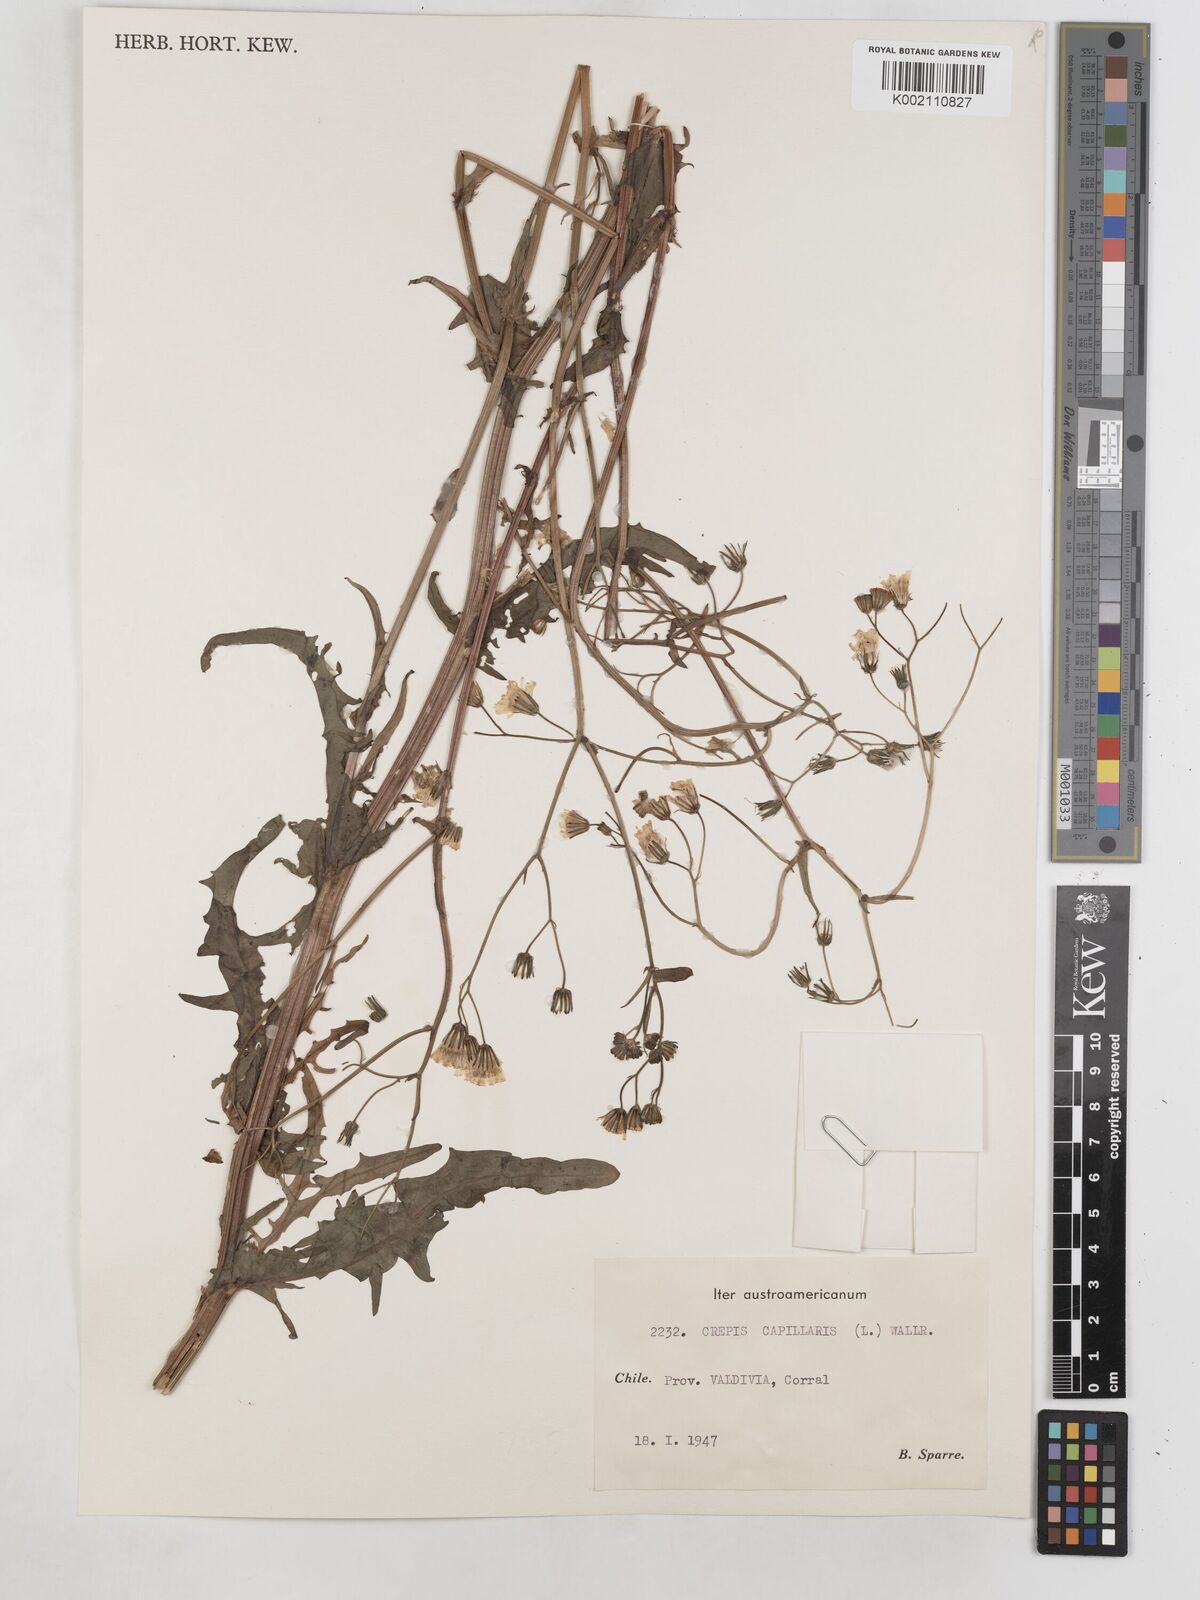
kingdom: Plantae
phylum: Tracheophyta
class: Magnoliopsida
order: Asterales
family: Asteraceae
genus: Crepis
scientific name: Crepis capillaris
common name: Smooth hawksbeard
